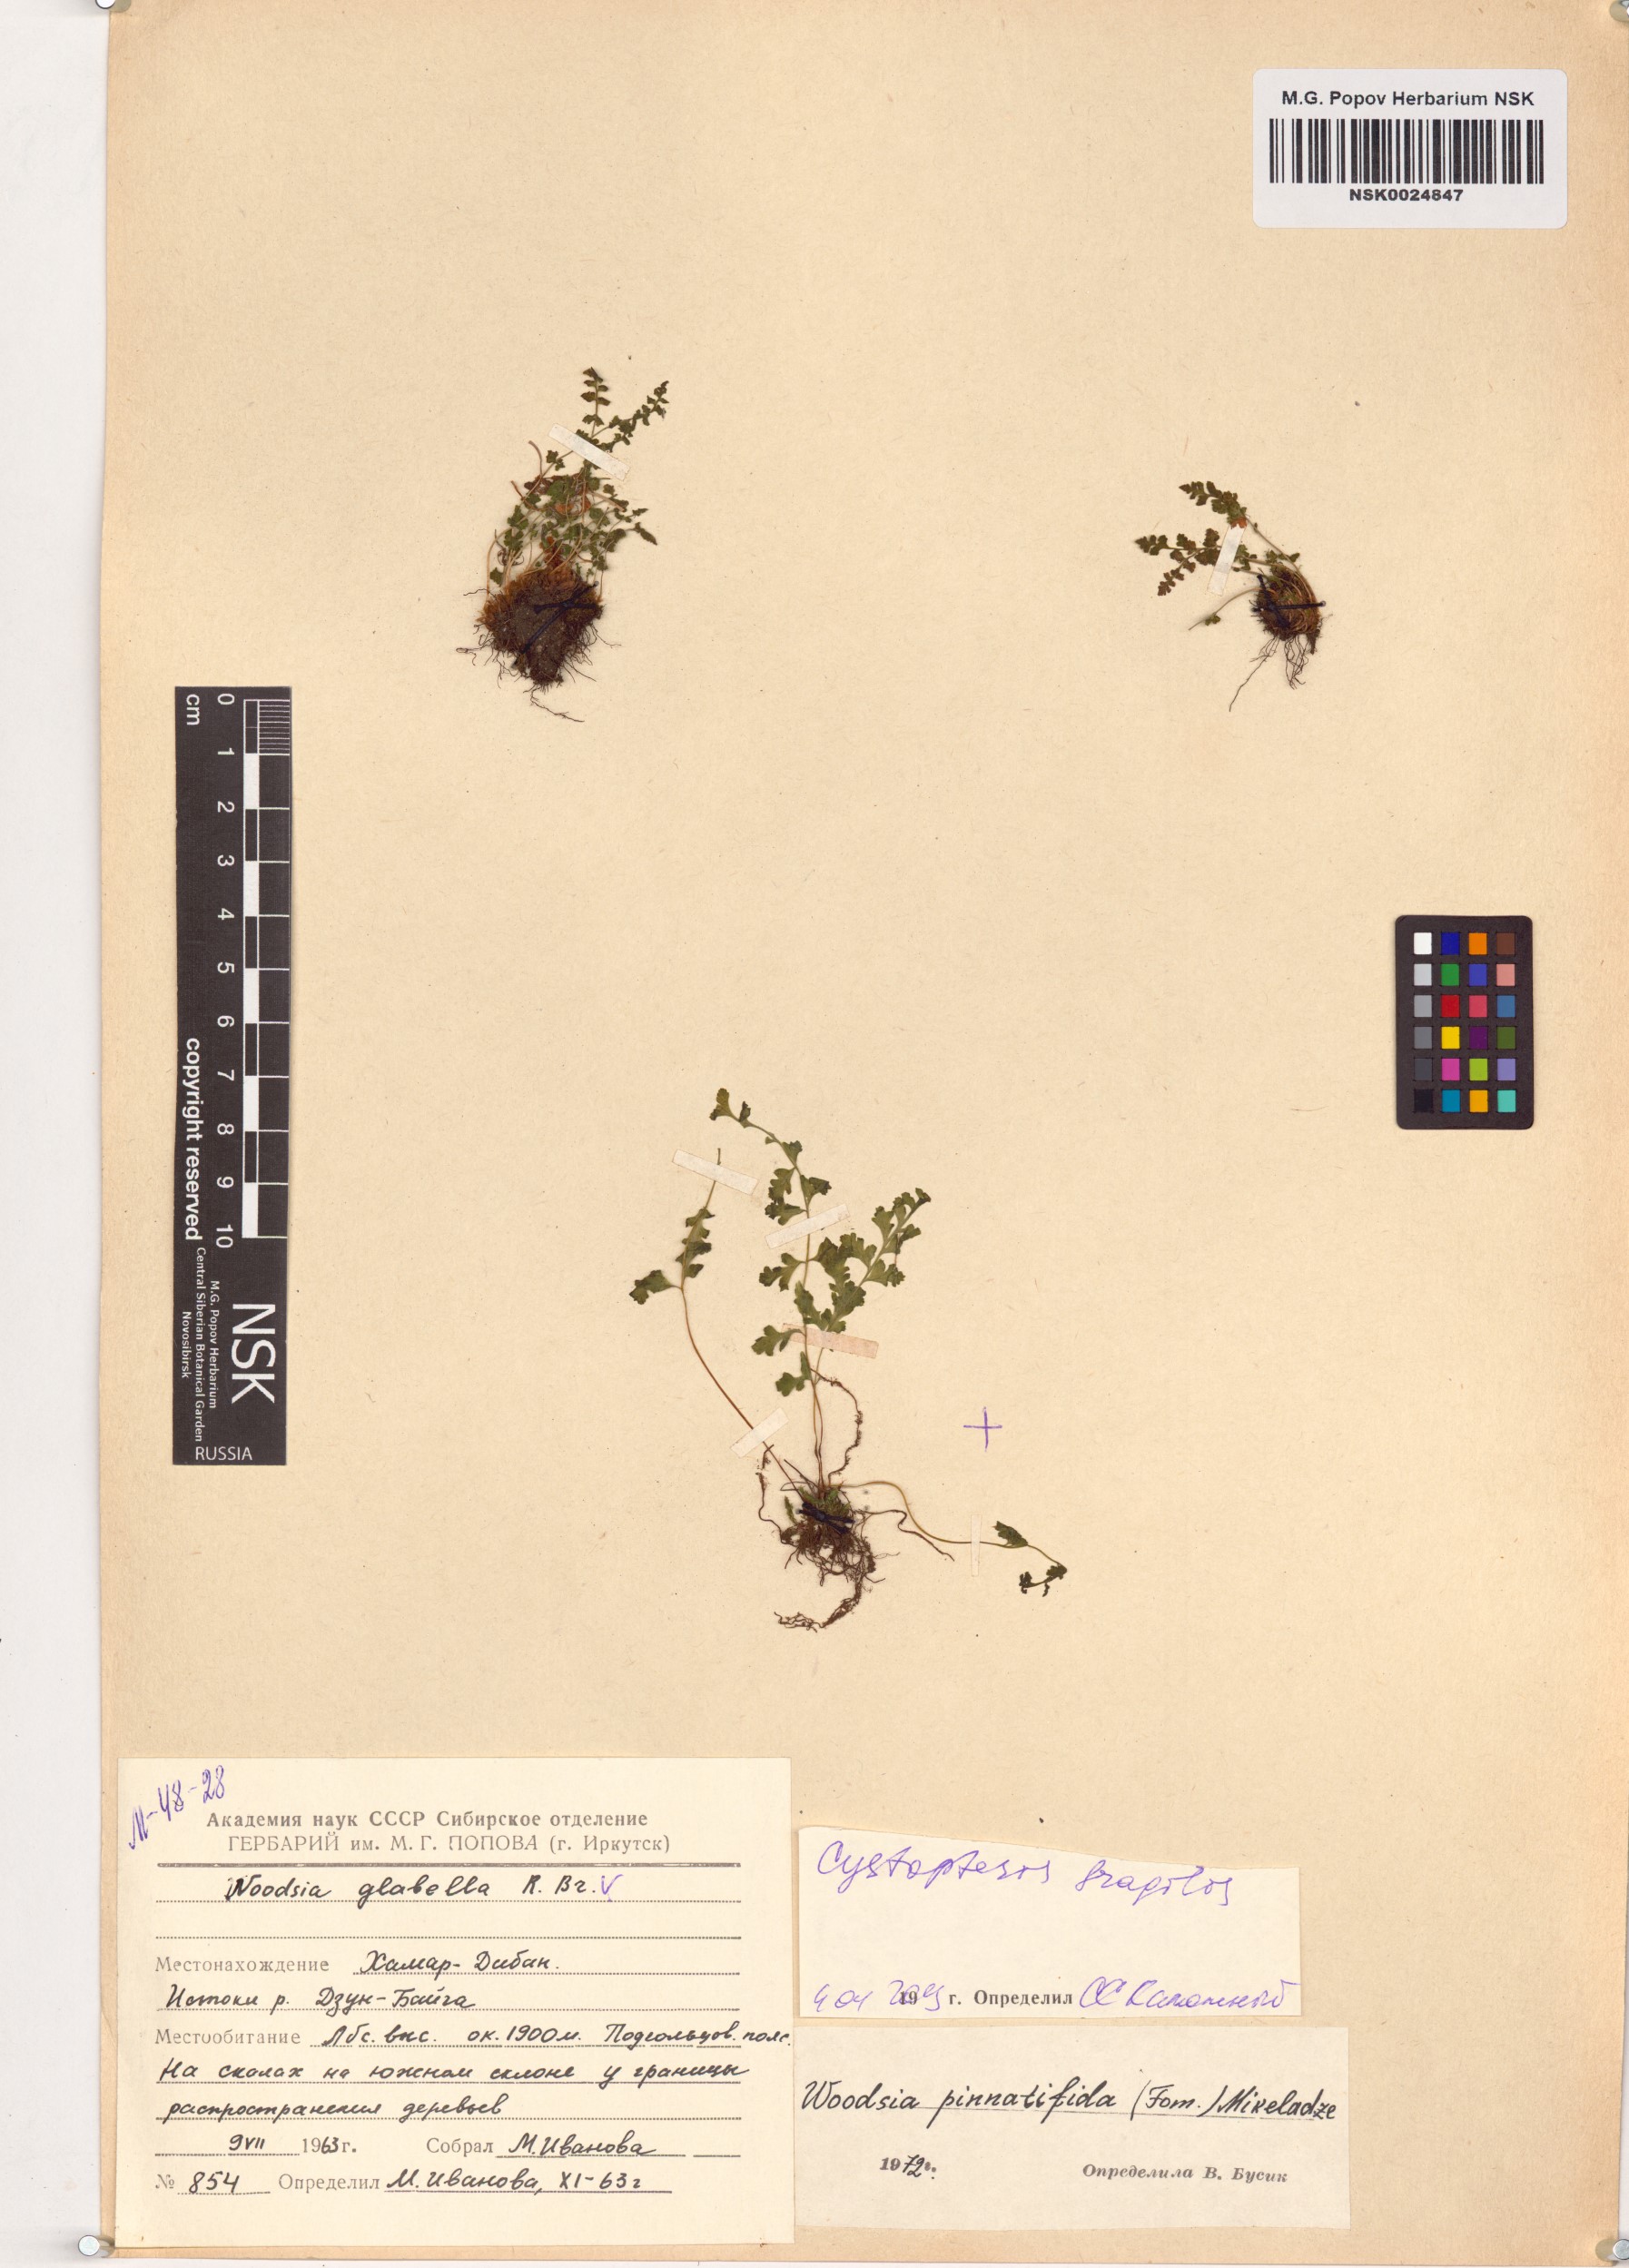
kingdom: Plantae
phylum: Tracheophyta
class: Polypodiopsida
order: Polypodiales
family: Cystopteridaceae
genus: Cystopteris
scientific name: Cystopteris fragilis
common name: Brittle bladder fern
